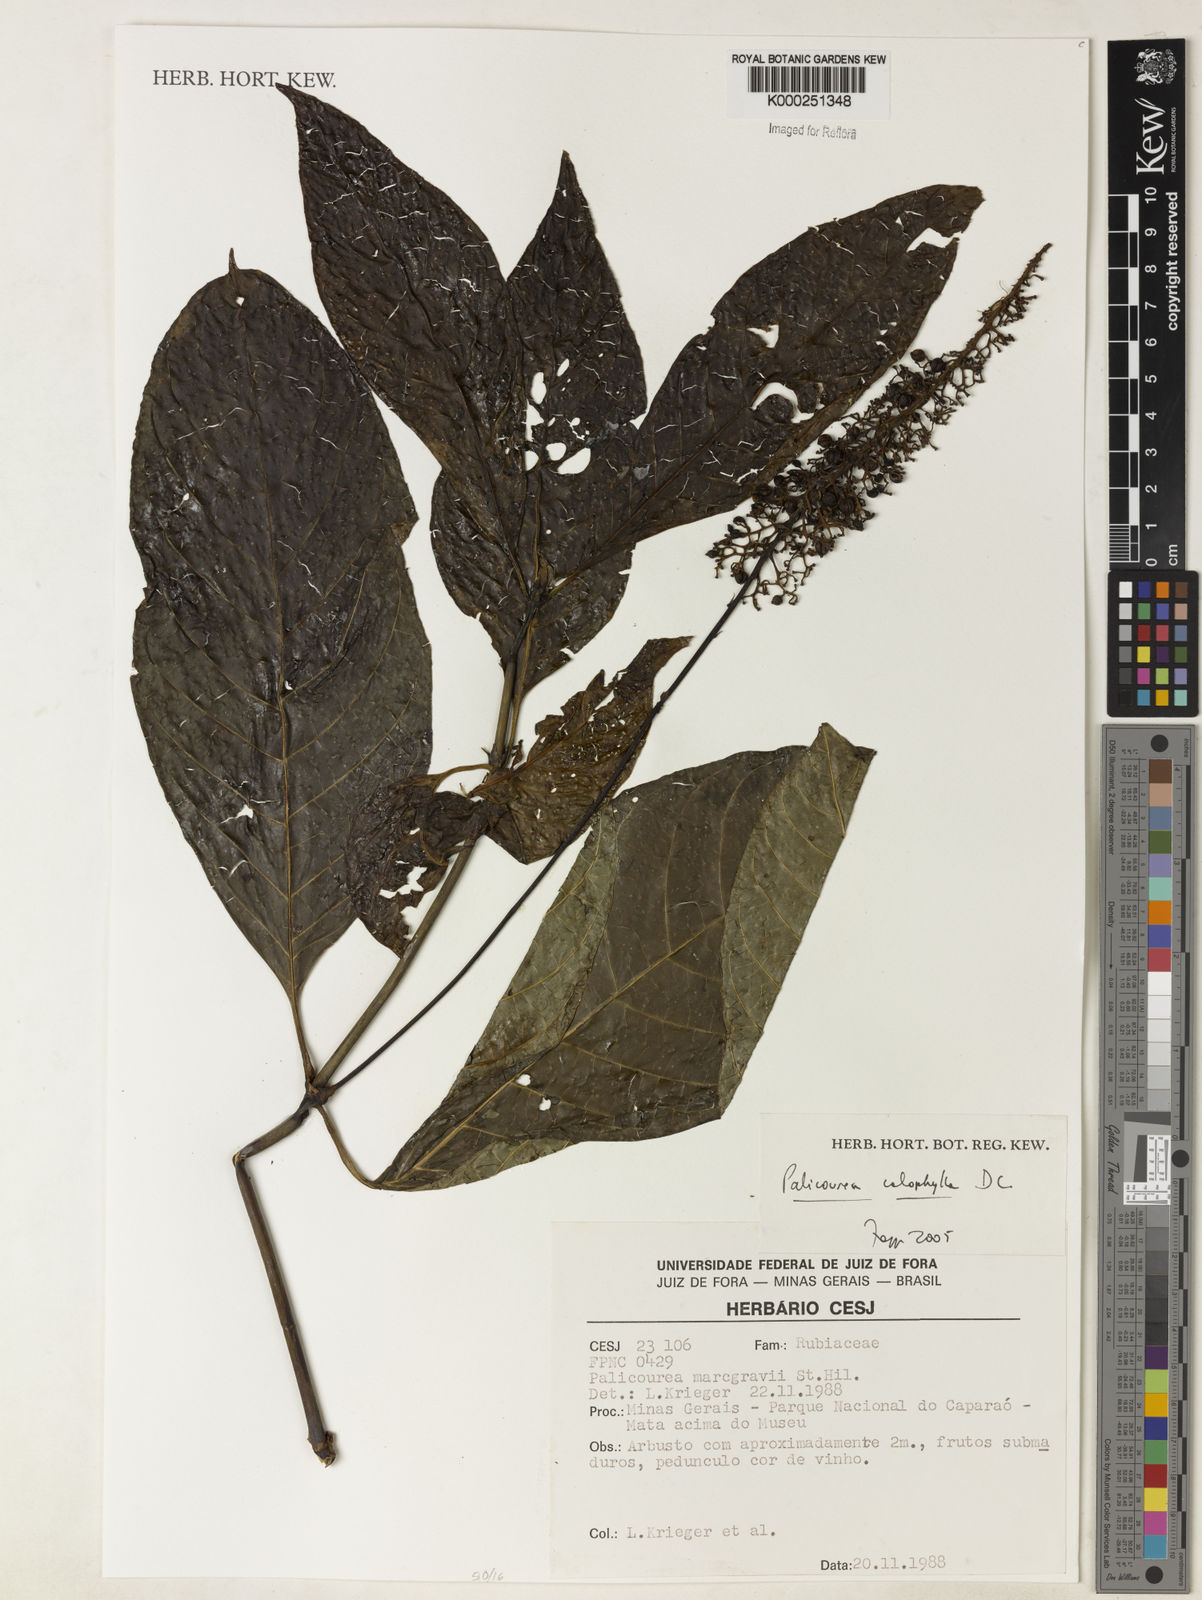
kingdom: Plantae
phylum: Tracheophyta
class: Magnoliopsida
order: Gentianales
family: Rubiaceae
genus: Palicourea
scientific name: Palicourea
